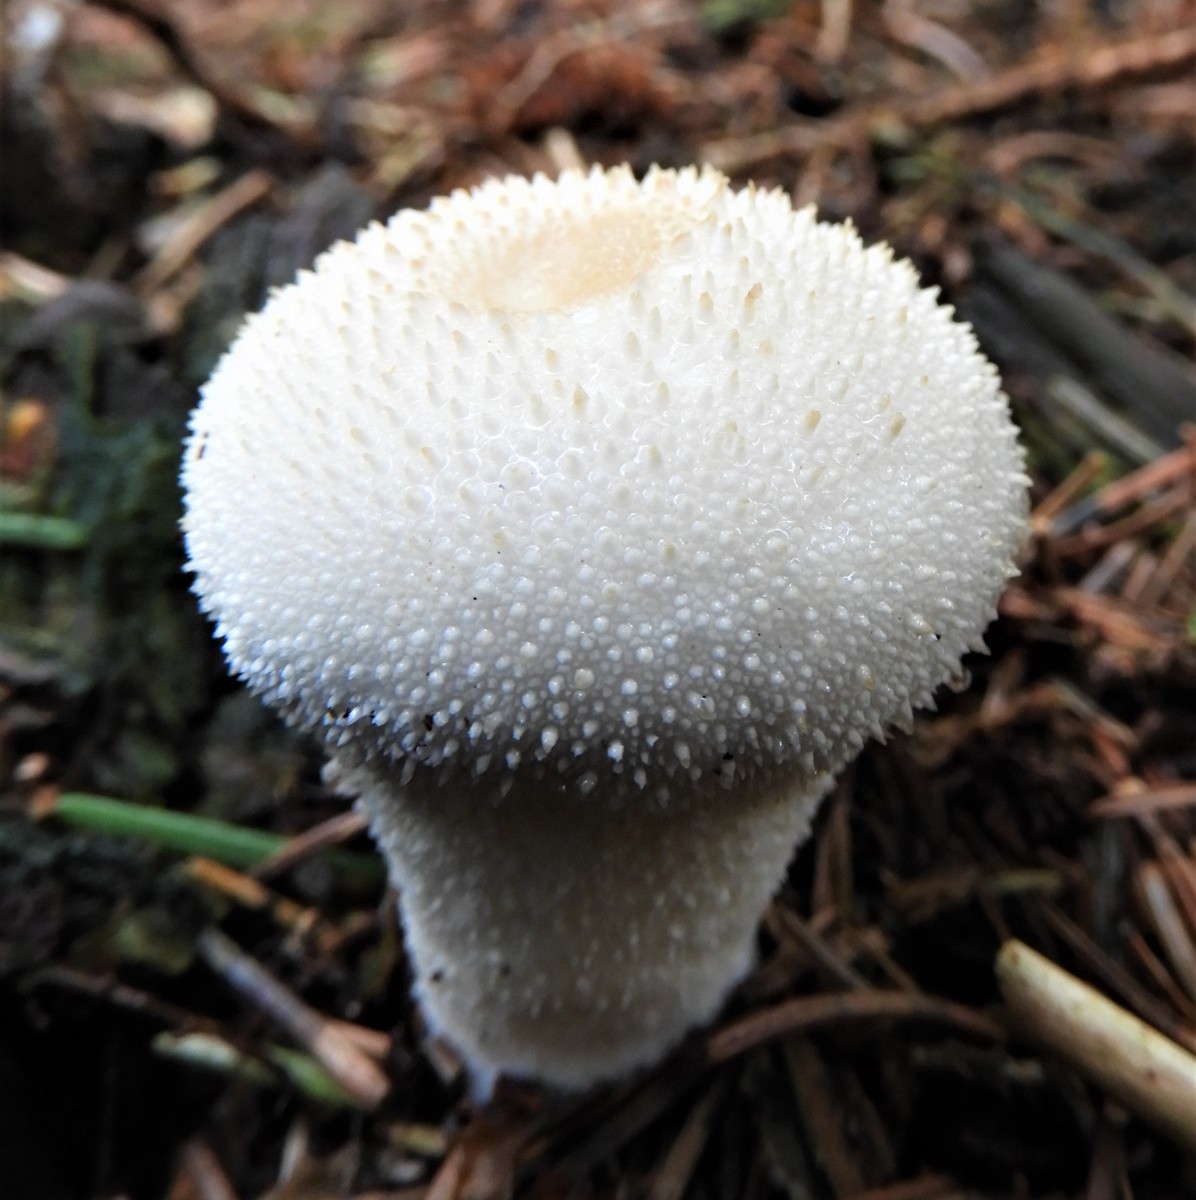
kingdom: Fungi
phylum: Basidiomycota
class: Agaricomycetes
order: Agaricales
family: Lycoperdaceae
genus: Lycoperdon
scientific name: Lycoperdon perlatum
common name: krystal-støvbold
